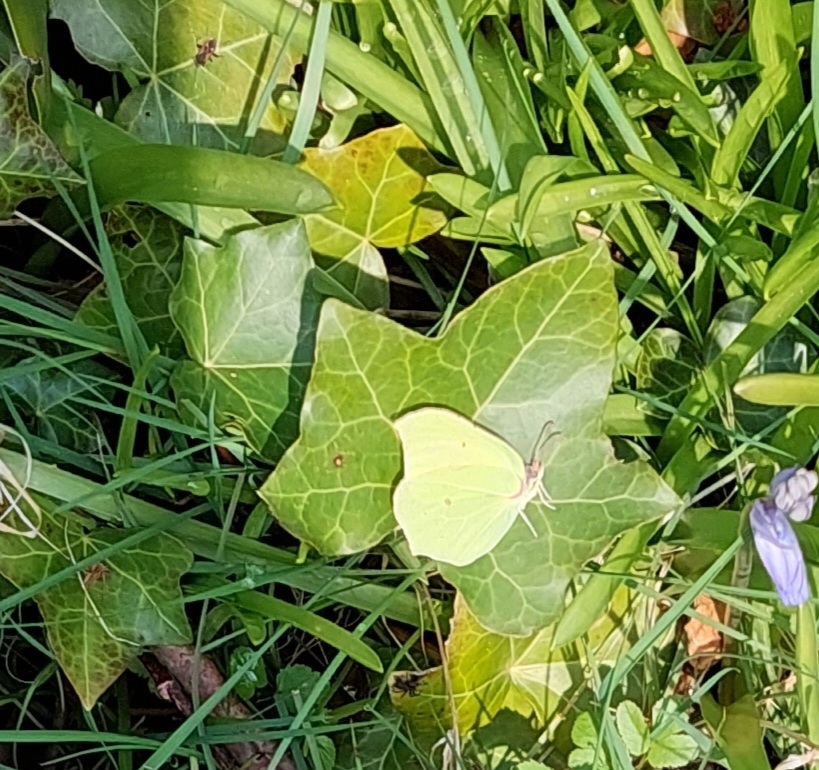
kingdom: Animalia
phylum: Arthropoda
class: Insecta
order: Lepidoptera
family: Pieridae
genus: Gonepteryx
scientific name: Gonepteryx rhamni
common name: Citronsommerfugl
